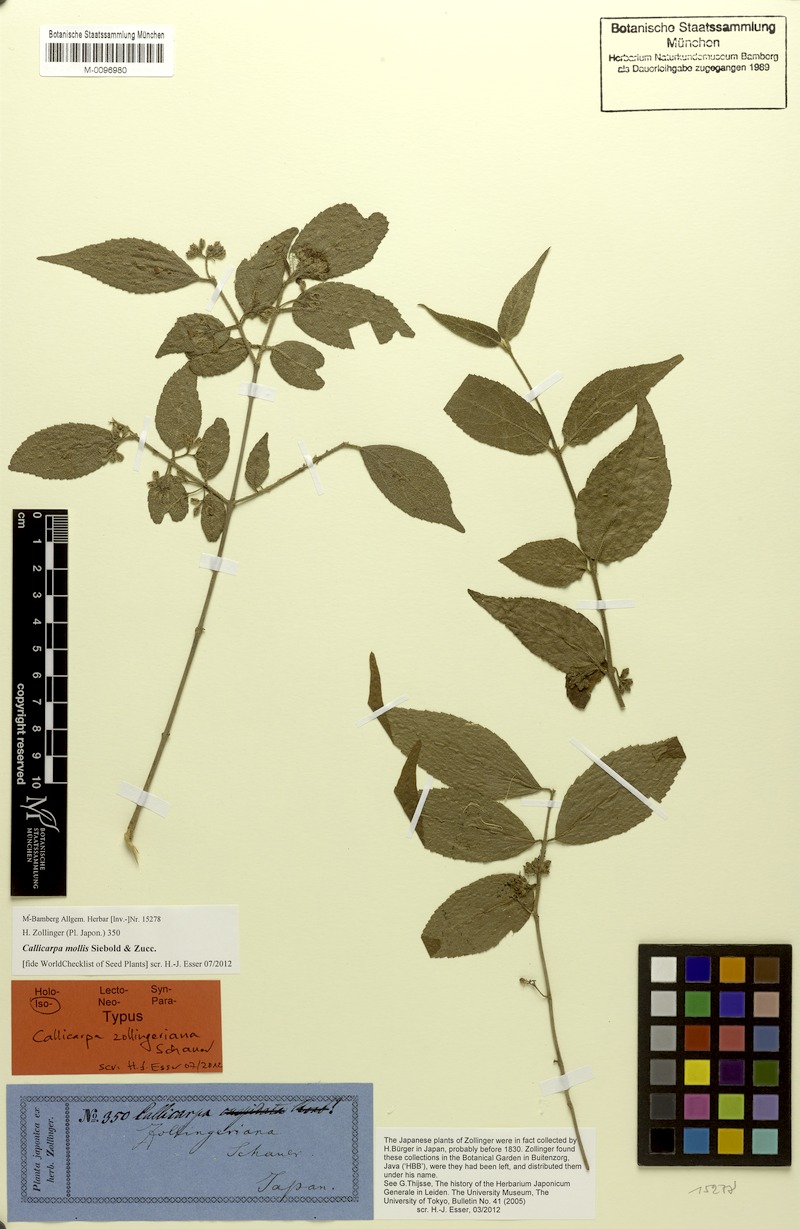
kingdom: Plantae
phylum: Tracheophyta
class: Magnoliopsida
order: Lamiales
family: Lamiaceae
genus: Callicarpa
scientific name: Callicarpa mollis
